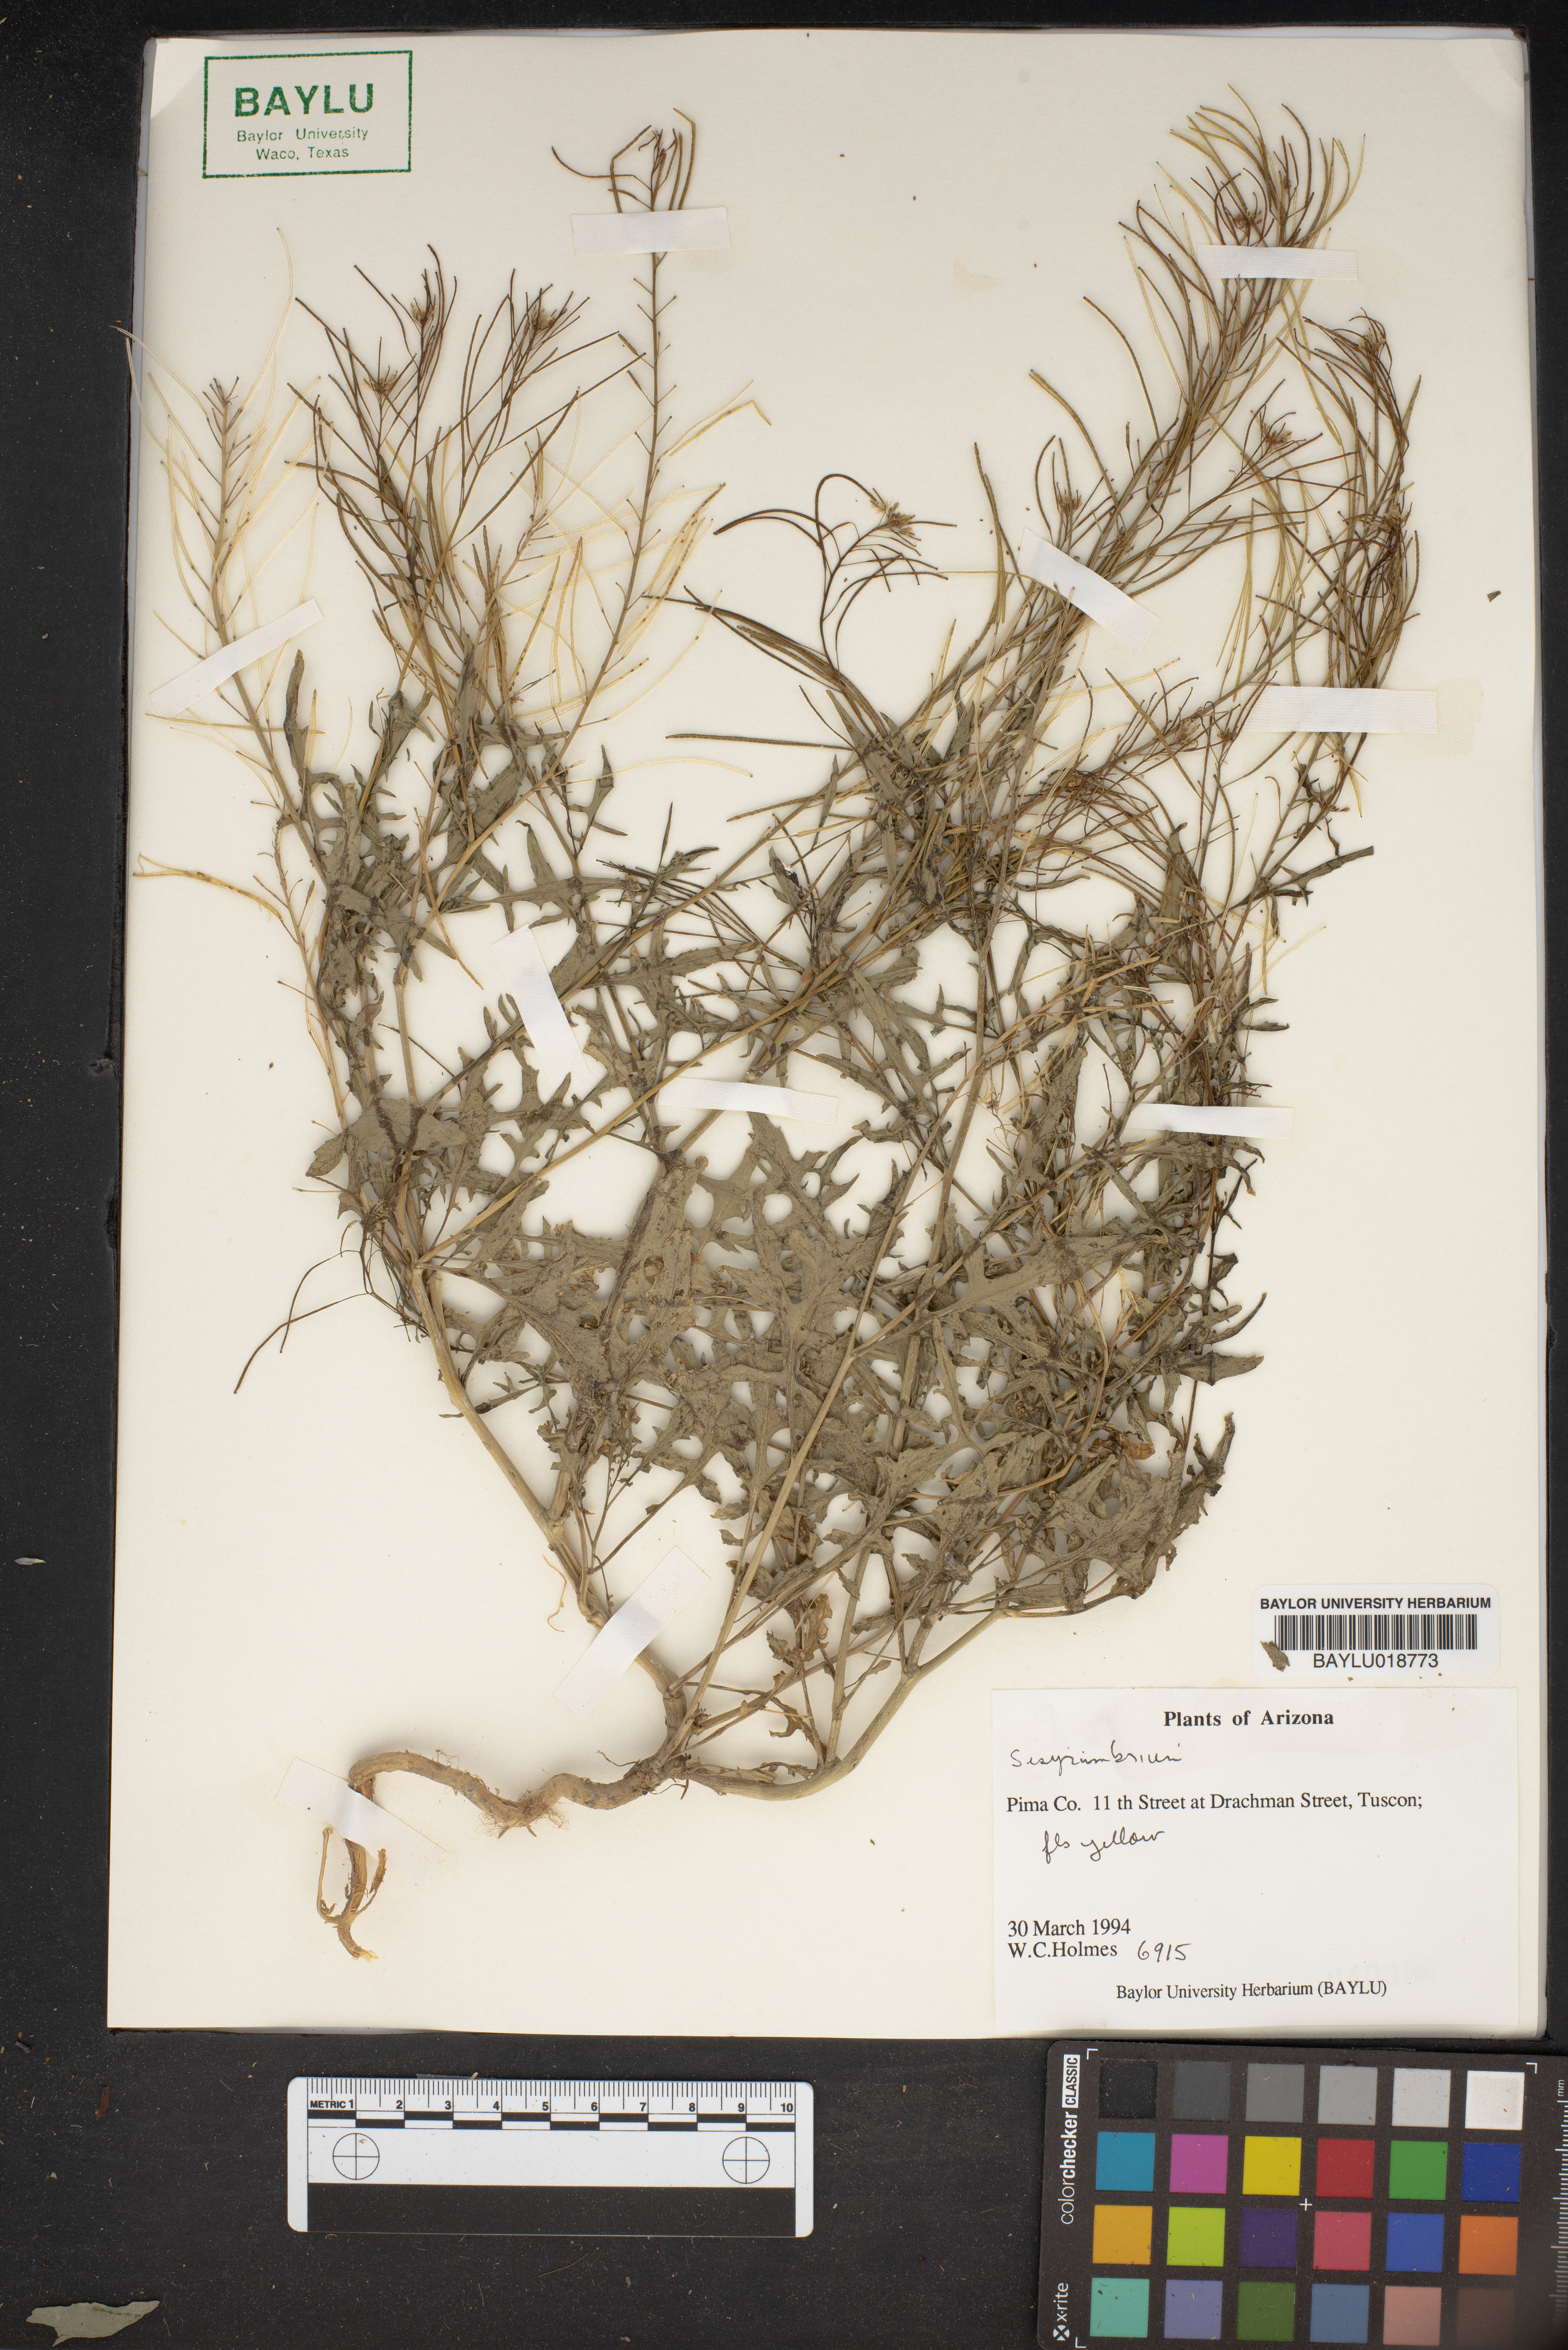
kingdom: Plantae
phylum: Tracheophyta
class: Magnoliopsida
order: Brassicales
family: Brassicaceae
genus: Sisymbrium
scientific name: Sisymbrium
